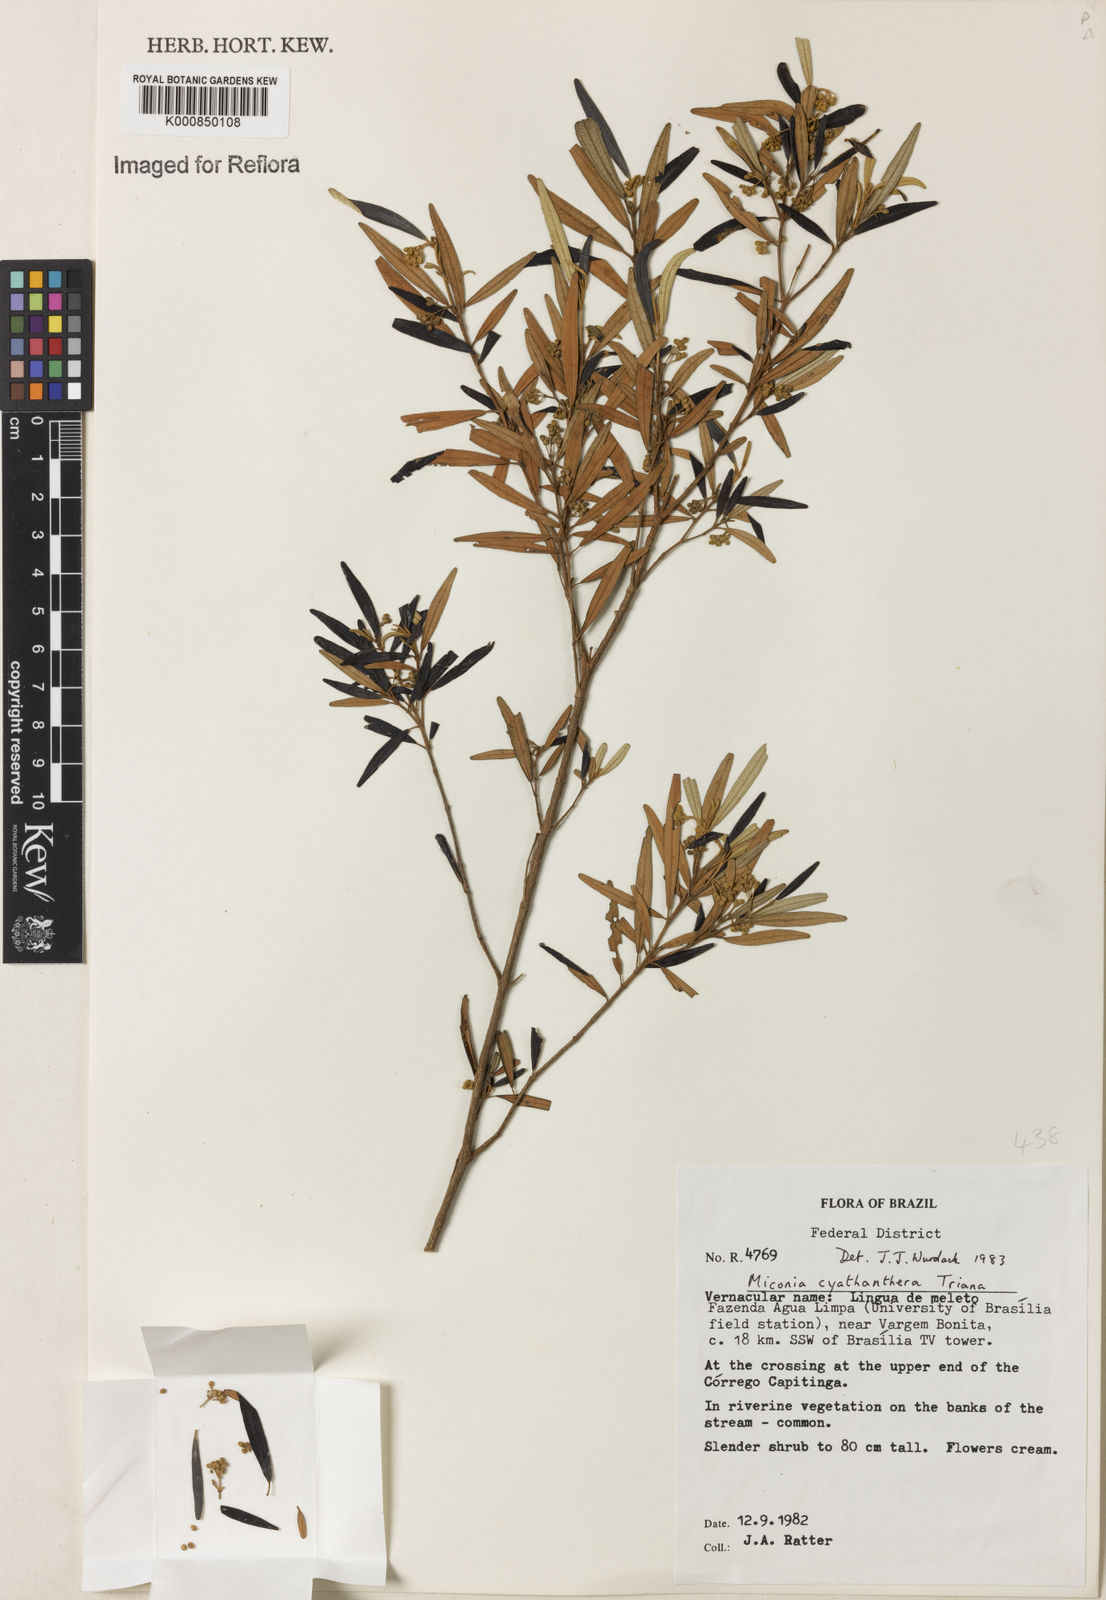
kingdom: Plantae
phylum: Tracheophyta
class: Magnoliopsida
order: Myrtales
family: Melastomataceae
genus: Miconia
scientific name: Miconia cyathanthera
